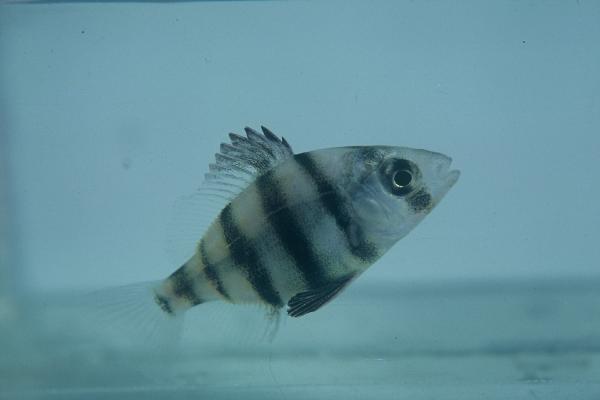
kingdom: Animalia
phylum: Chordata
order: Perciformes
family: Sparidae
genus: Diplodus
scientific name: Diplodus hottentotus
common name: Zebra
